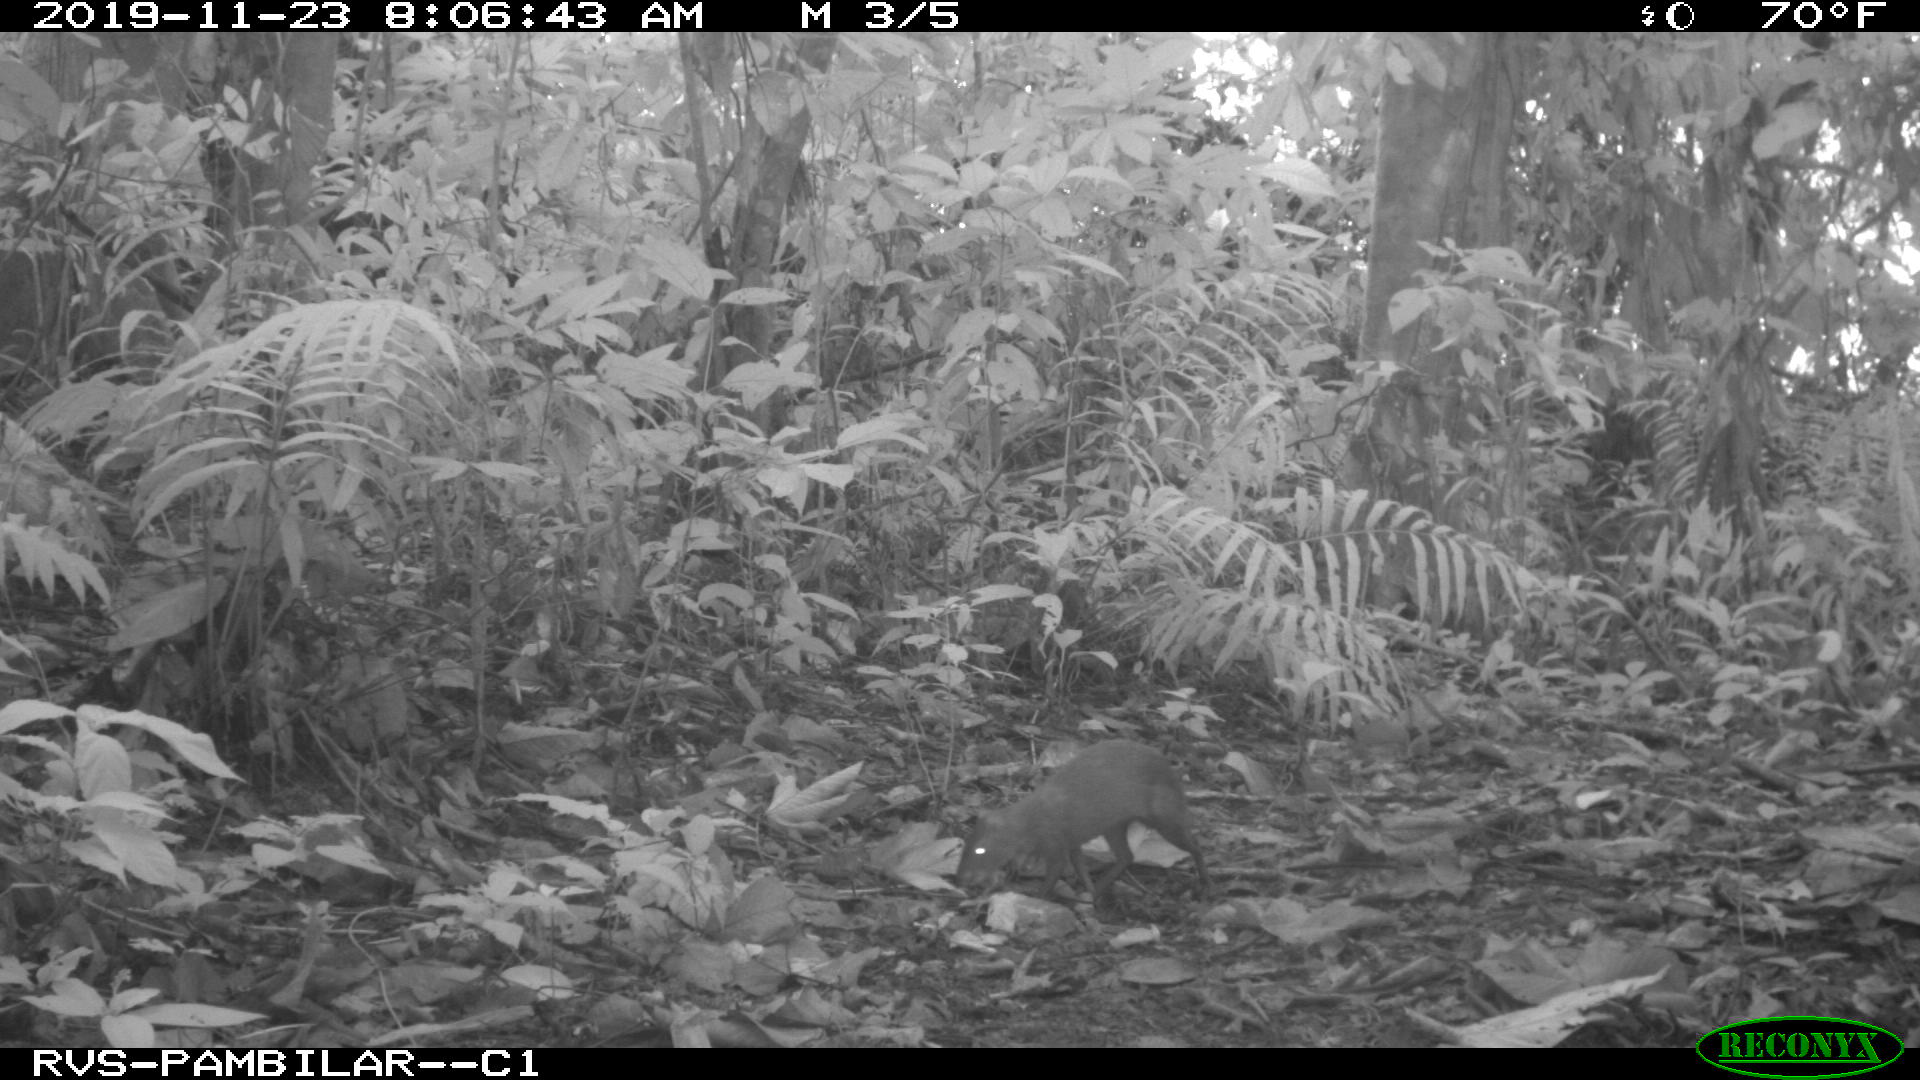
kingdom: Animalia
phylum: Chordata
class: Mammalia
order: Rodentia
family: Dasyproctidae
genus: Dasyprocta
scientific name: Dasyprocta punctata
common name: Central american agouti
